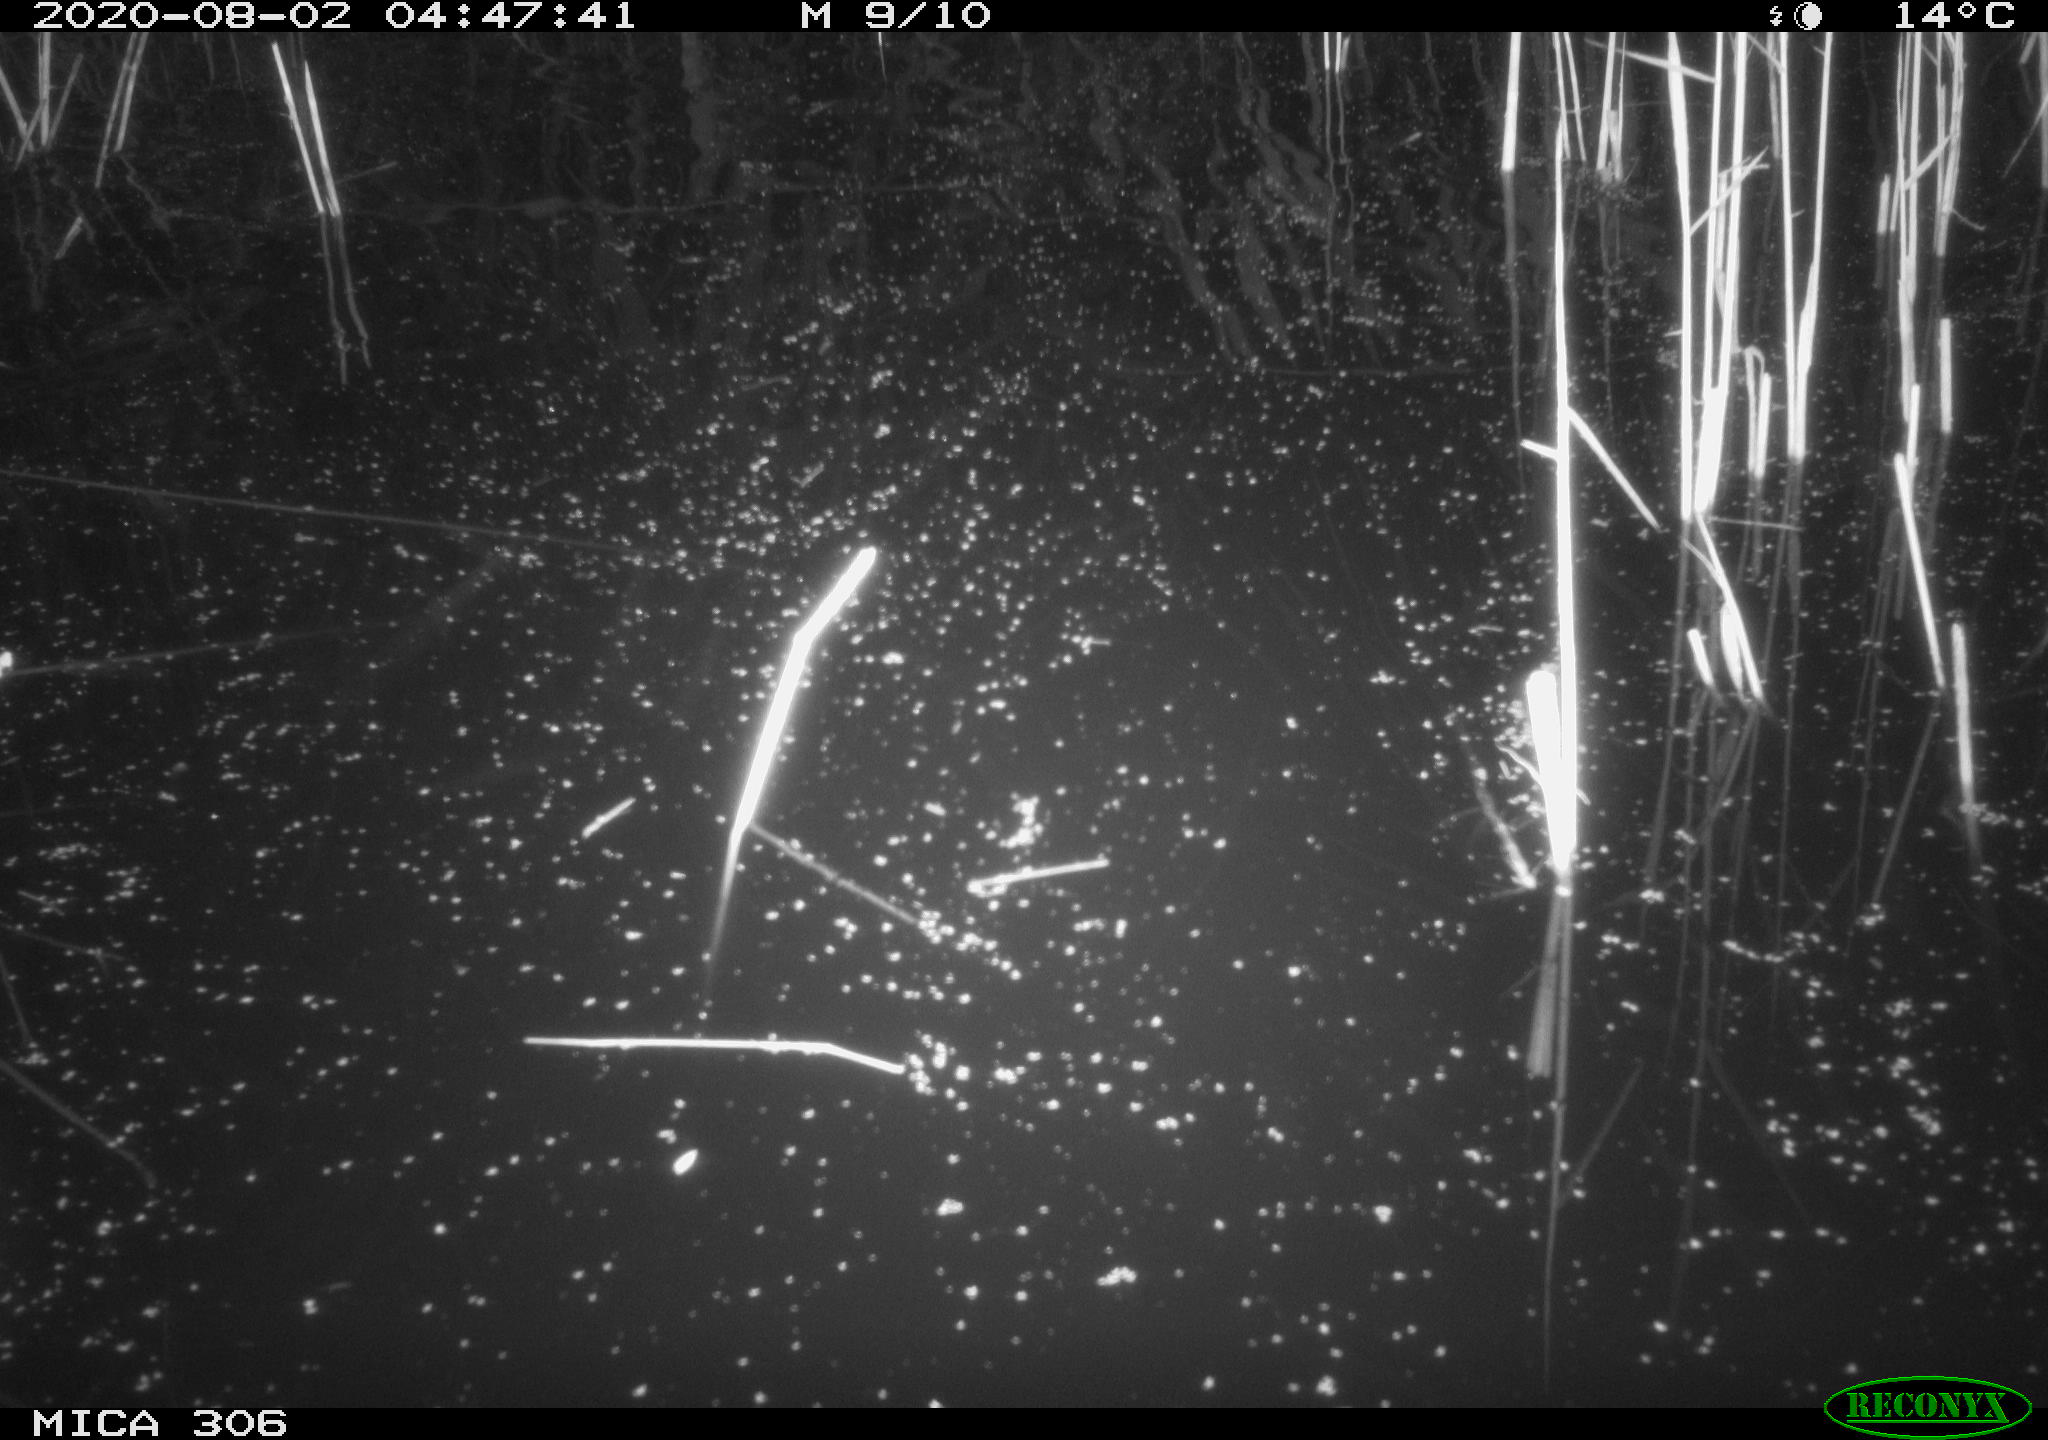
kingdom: Animalia
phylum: Chordata
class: Mammalia
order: Rodentia
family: Muridae
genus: Rattus
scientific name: Rattus norvegicus
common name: Brown rat
